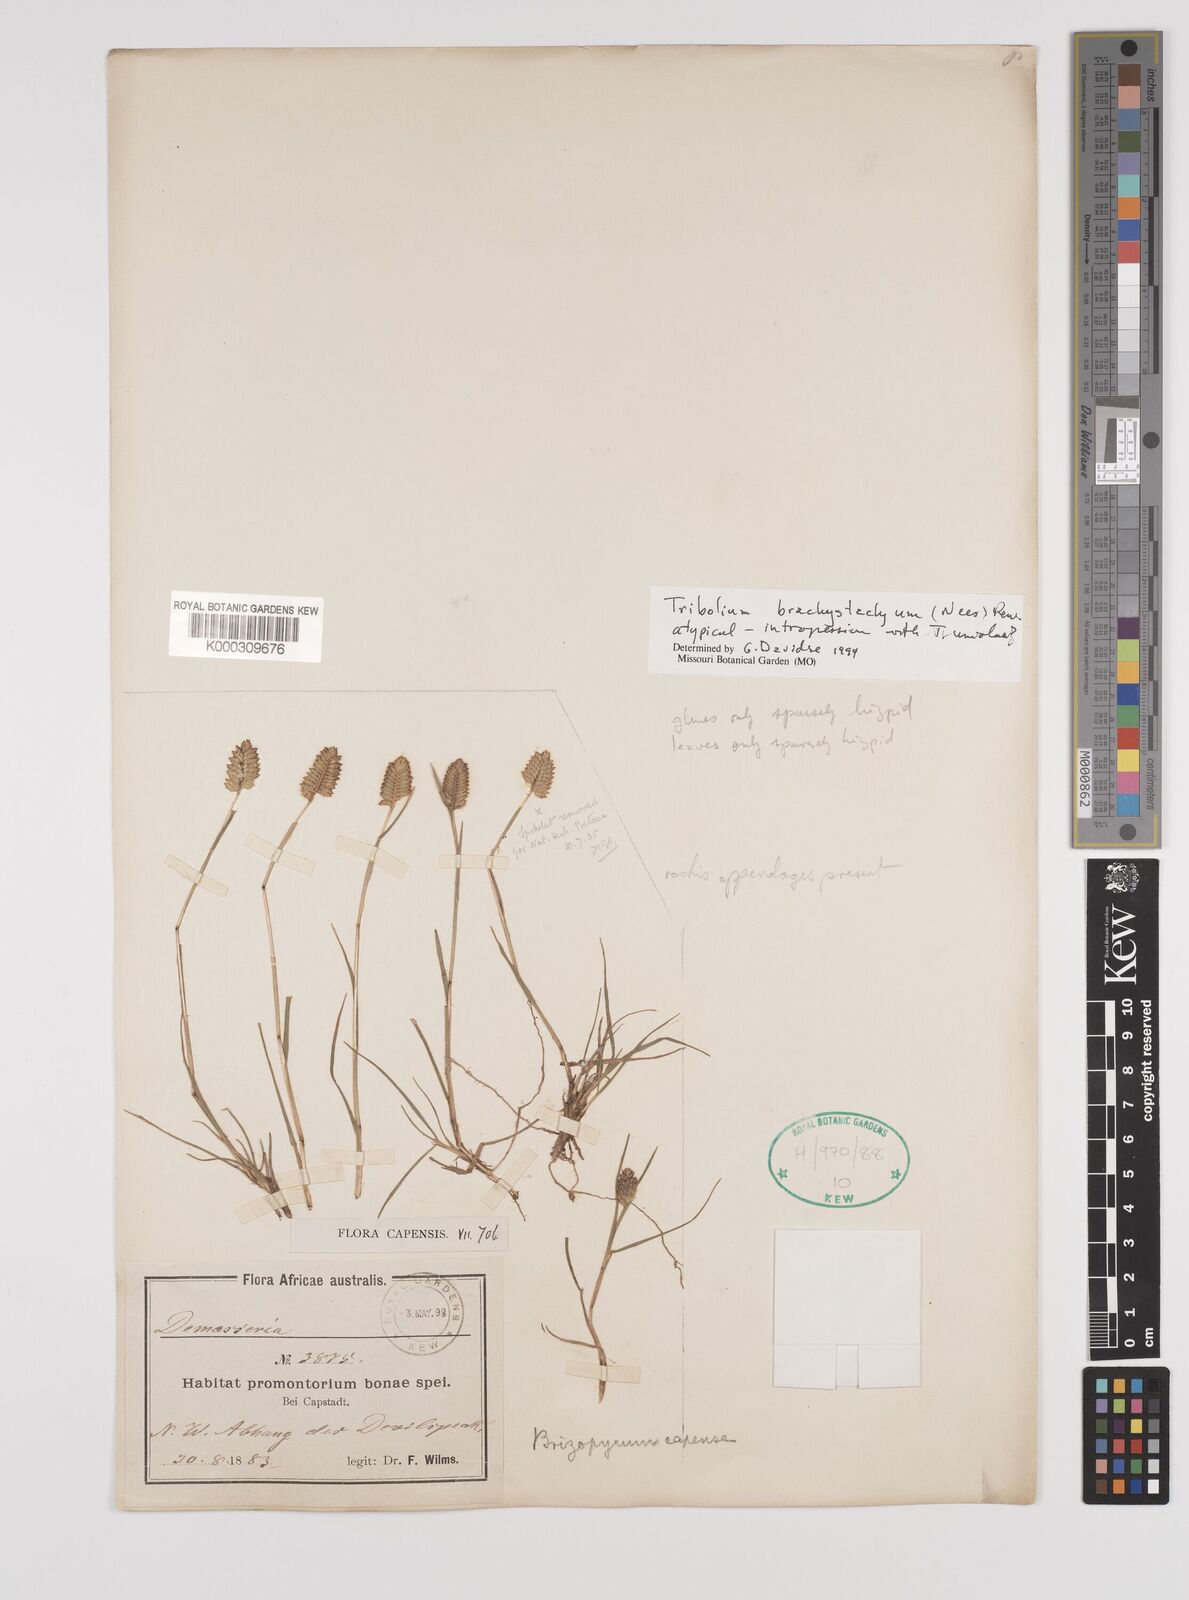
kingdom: Plantae
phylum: Tracheophyta
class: Liliopsida
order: Poales
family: Poaceae
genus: Tribolium
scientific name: Tribolium brachystachyum
